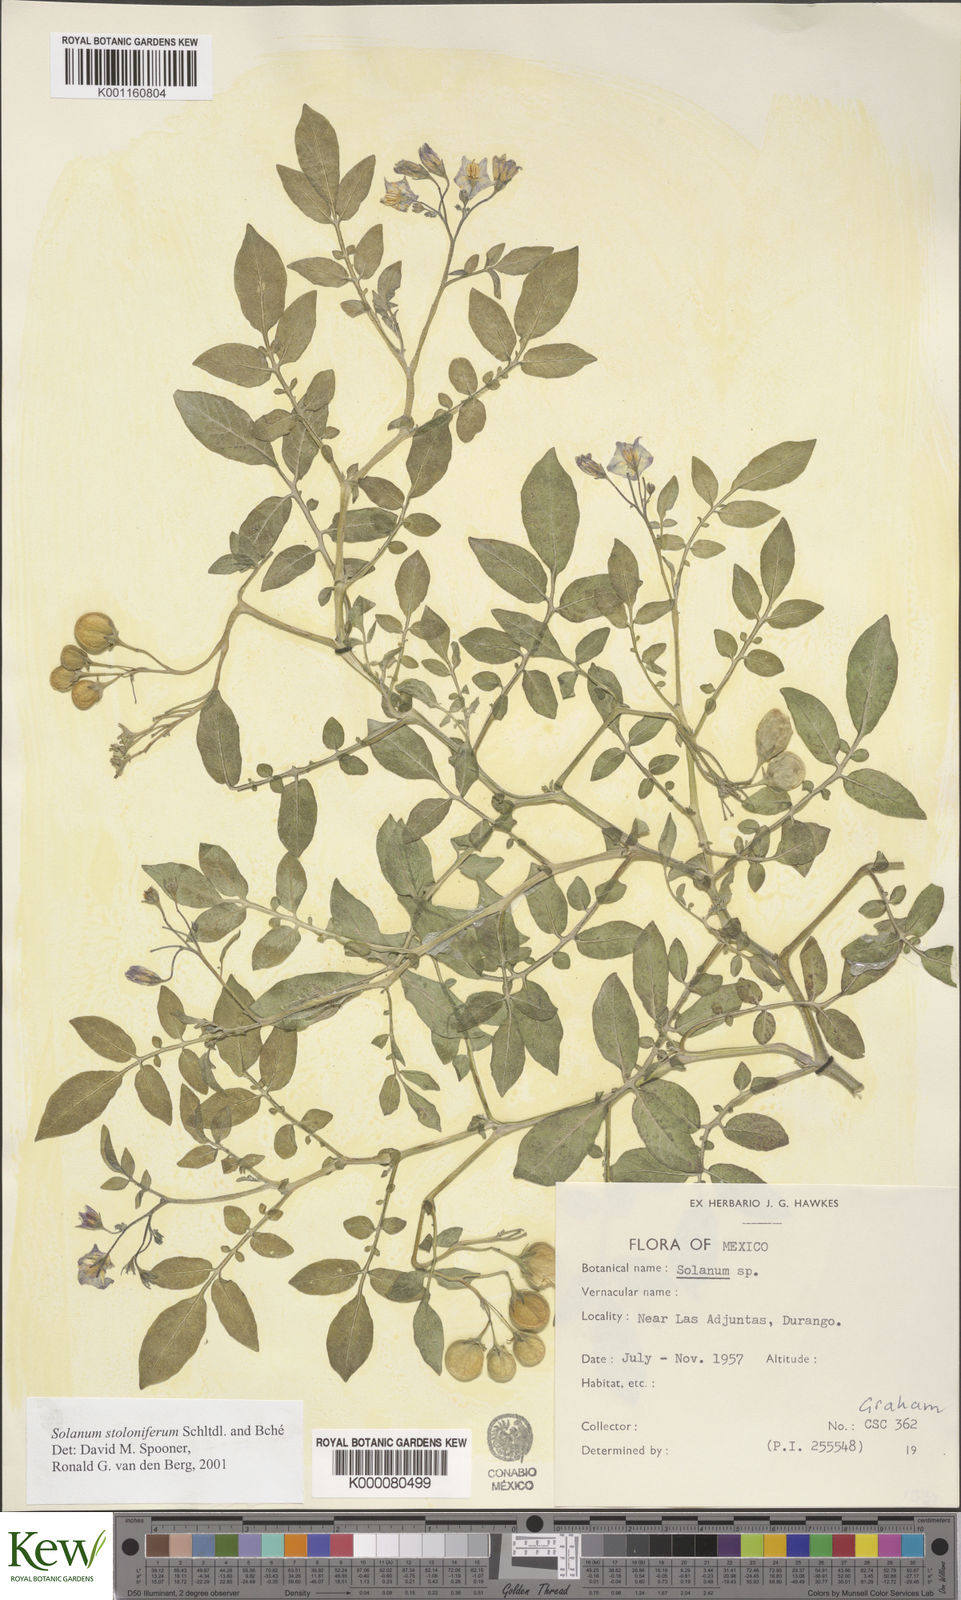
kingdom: Plantae
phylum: Tracheophyta
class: Magnoliopsida
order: Solanales
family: Solanaceae
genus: Solanum
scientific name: Solanum stoloniferum
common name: Fendler's nighshade
